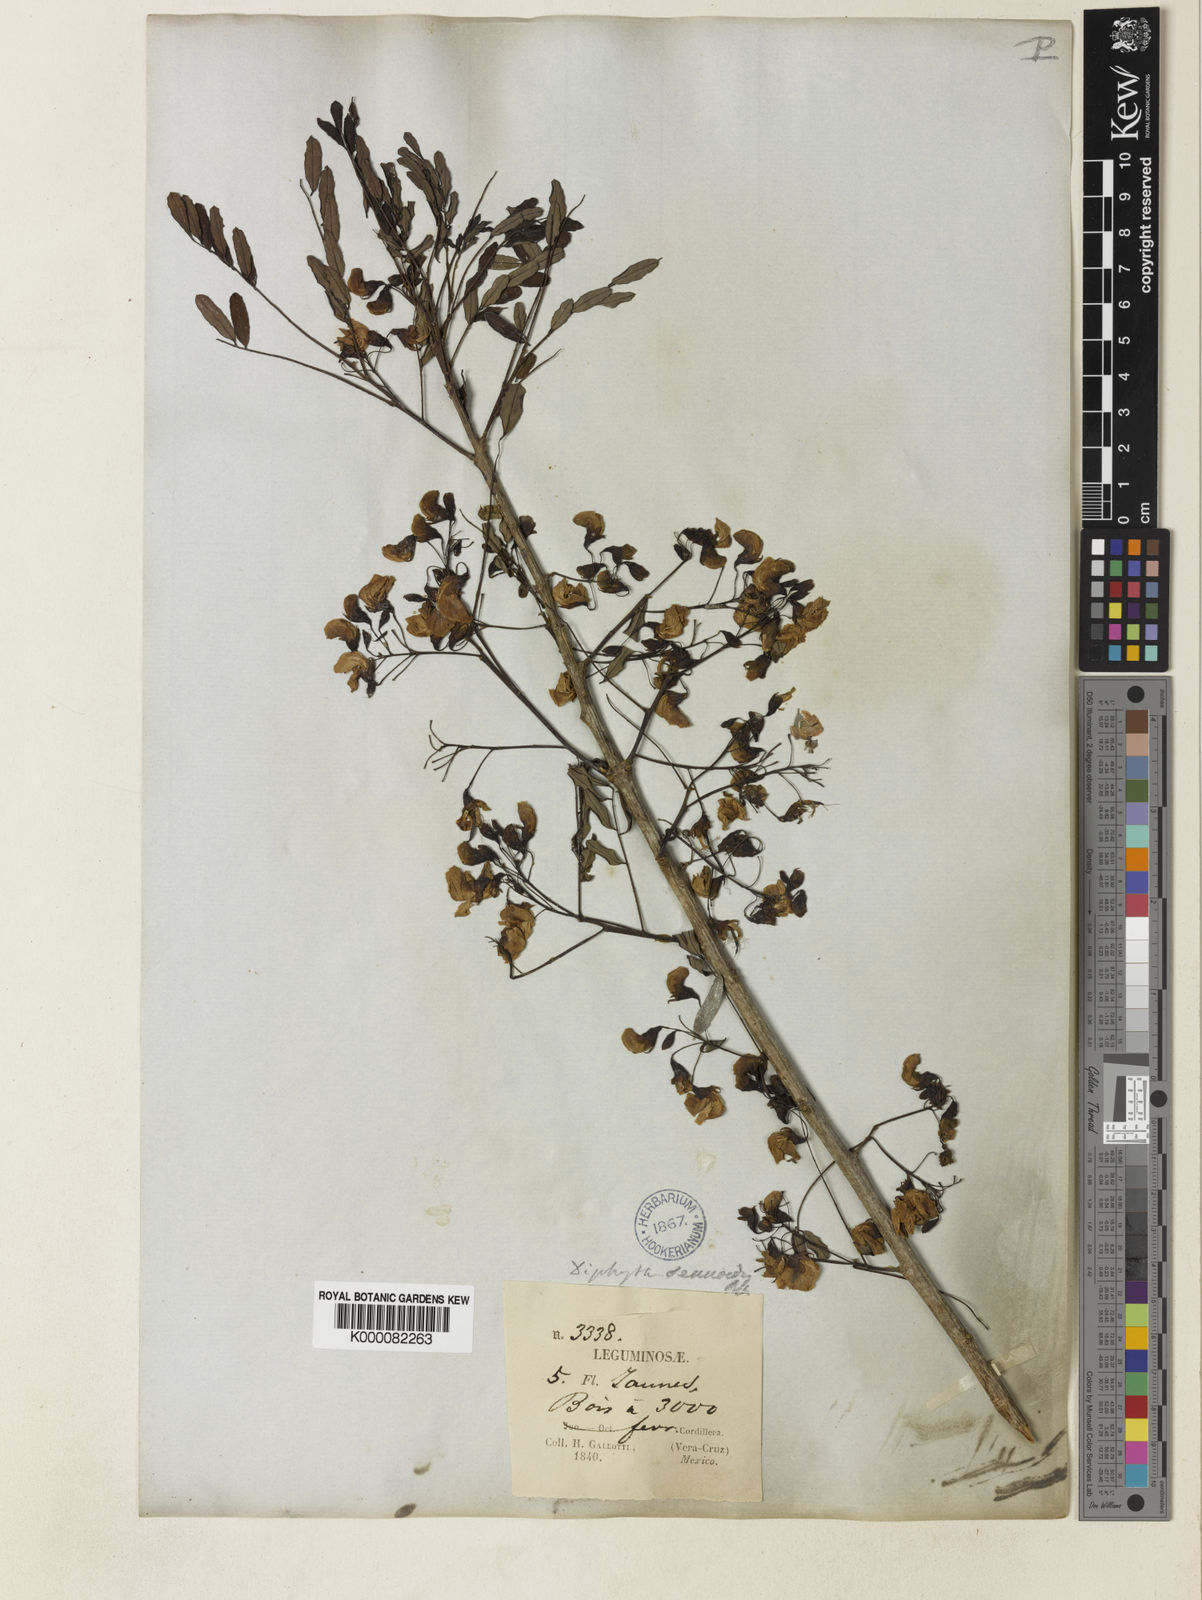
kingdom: Plantae
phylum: Tracheophyta
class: Magnoliopsida
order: Fabales
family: Fabaceae
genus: Diphysa
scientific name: Diphysa sennoides
